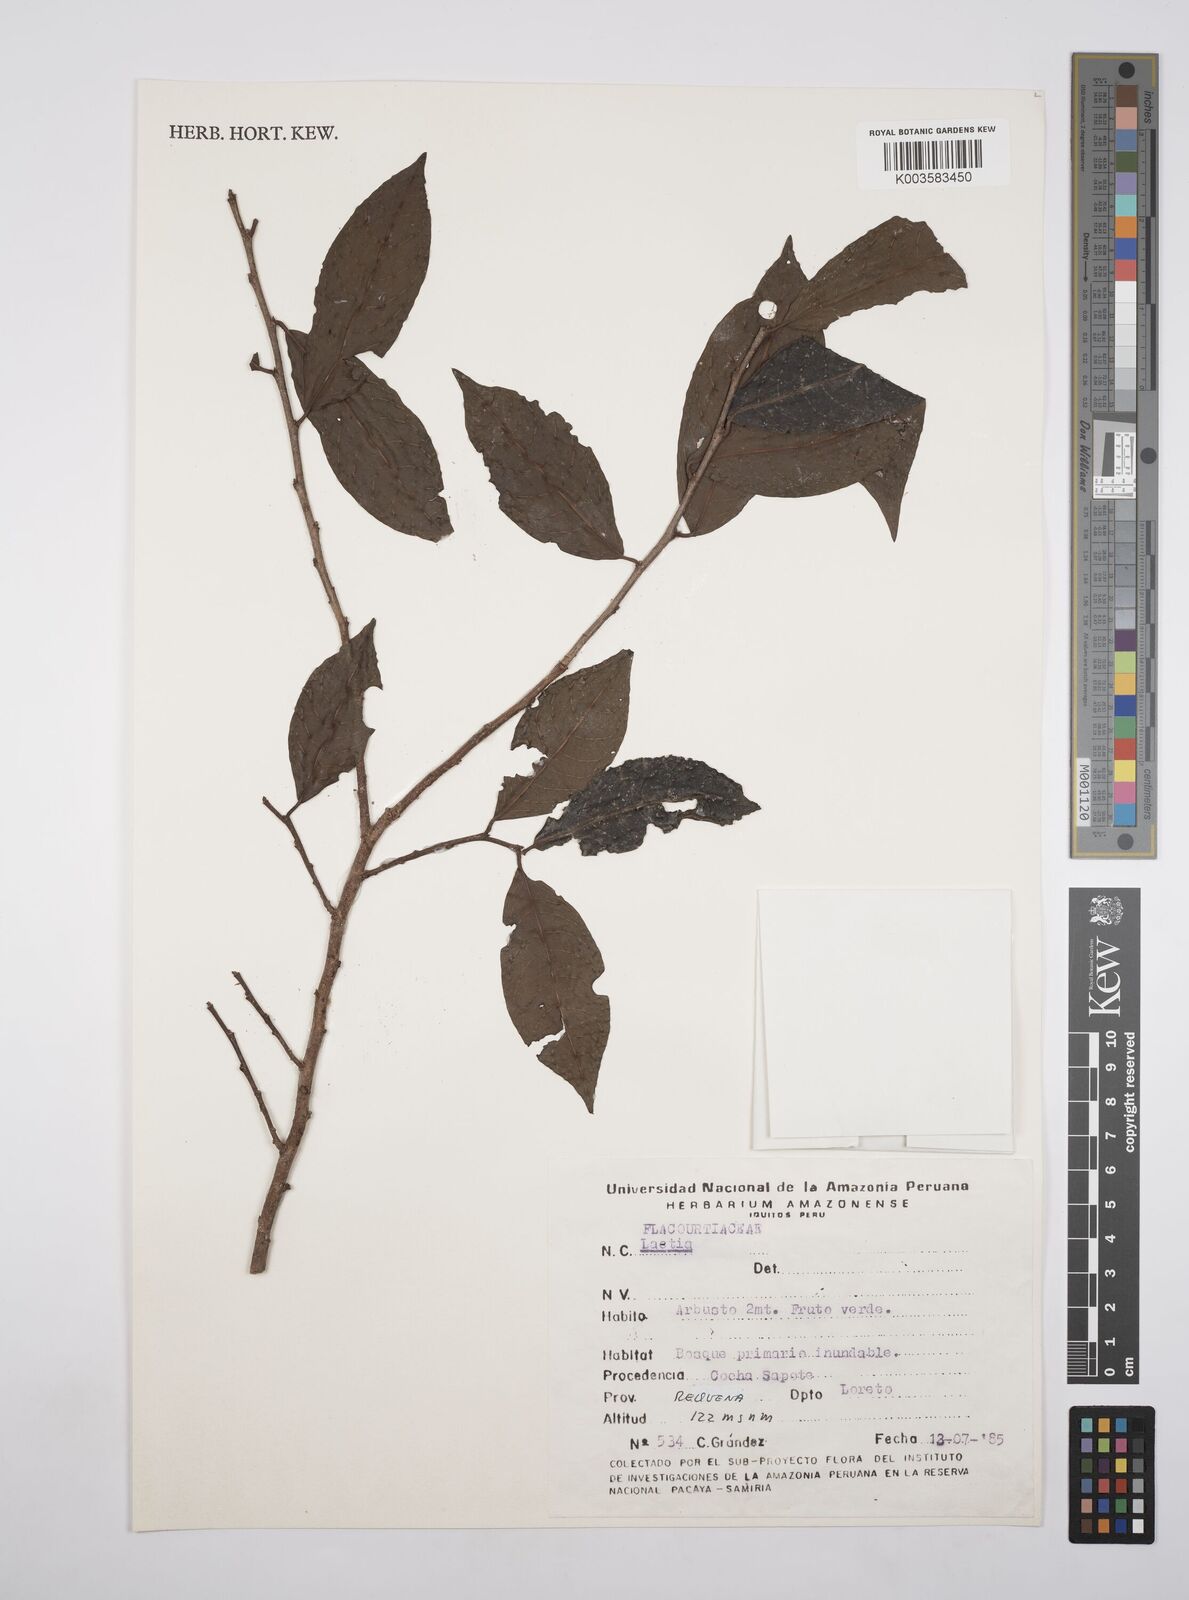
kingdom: Plantae
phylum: Tracheophyta
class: Magnoliopsida
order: Malpighiales
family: Flacourtiaceae
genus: Laetia
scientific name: Laetia
